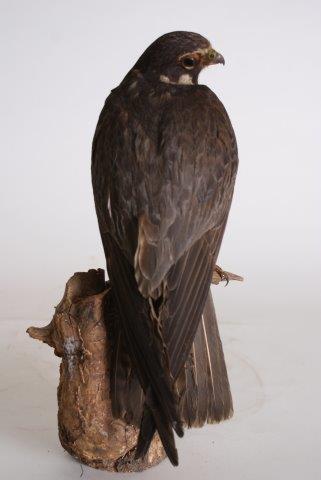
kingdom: Animalia
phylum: Chordata
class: Aves
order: Falconiformes
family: Falconidae
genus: Falco
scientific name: Falco subbuteo
